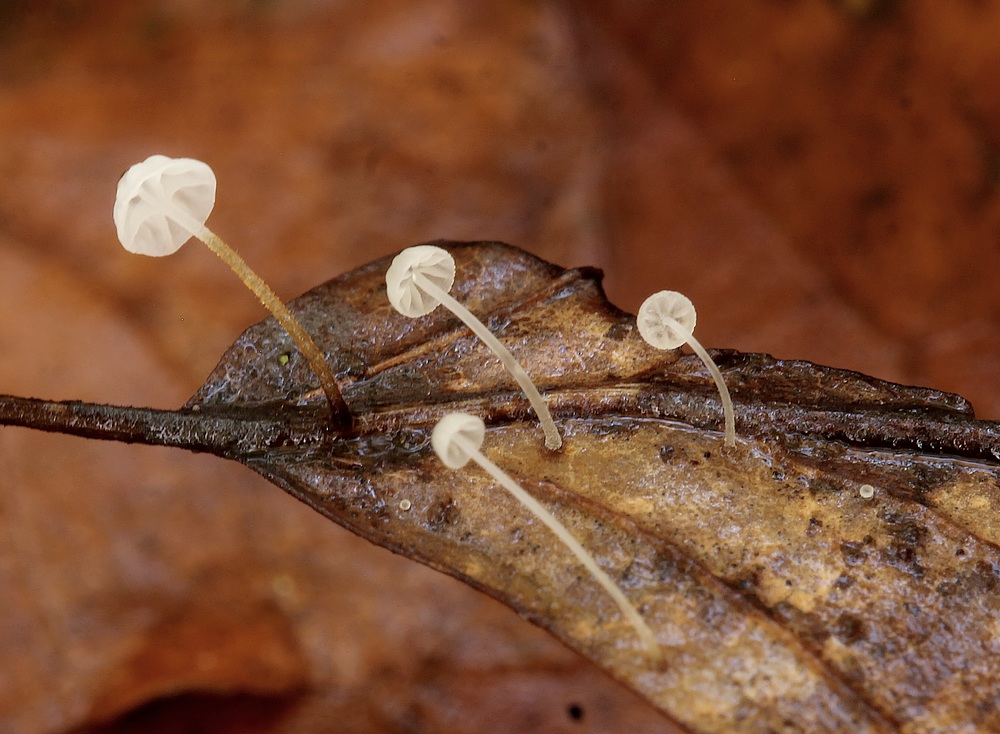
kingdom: Fungi
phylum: Basidiomycota
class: Agaricomycetes
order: Agaricales
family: Physalacriaceae
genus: Rhizomarasmius
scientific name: Rhizomarasmius setosus
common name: bøgeblads-bruskhat
